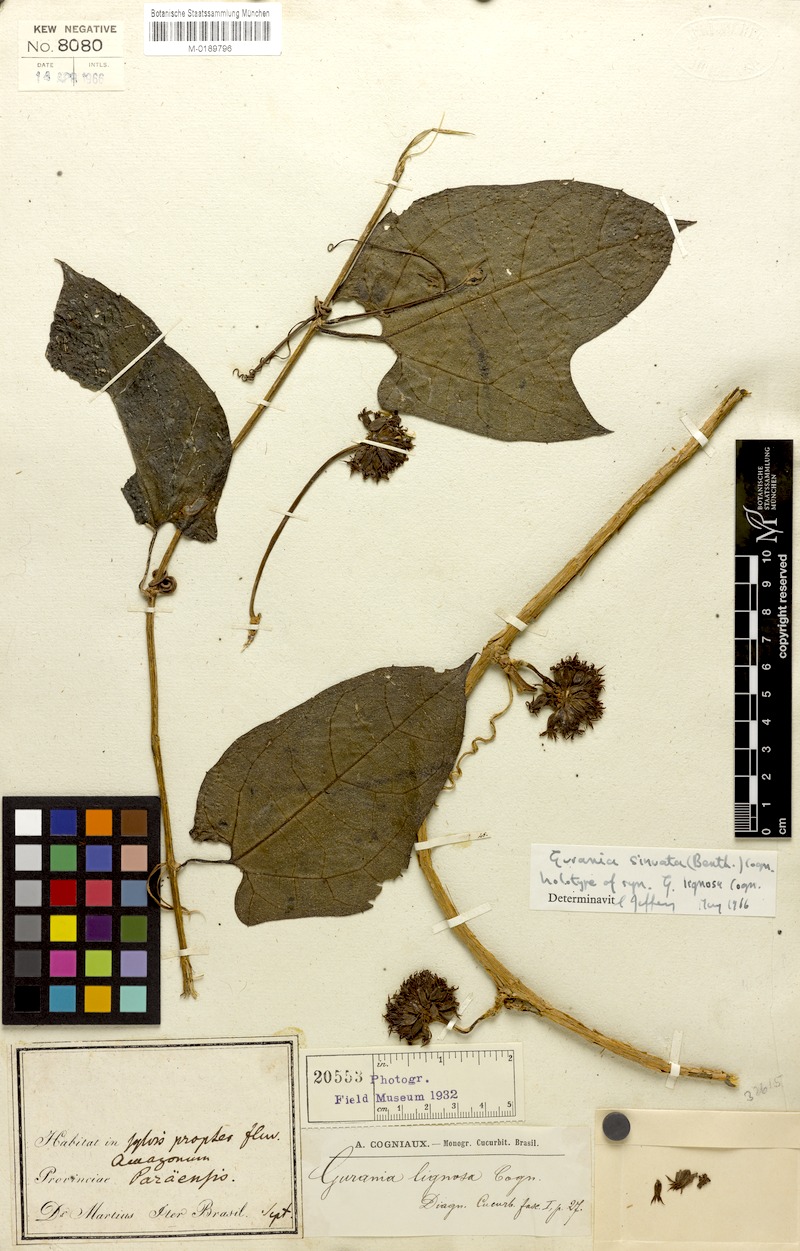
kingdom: Plantae
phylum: Tracheophyta
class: Magnoliopsida
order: Cucurbitales
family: Cucurbitaceae
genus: Gurania
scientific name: Gurania sinuata
